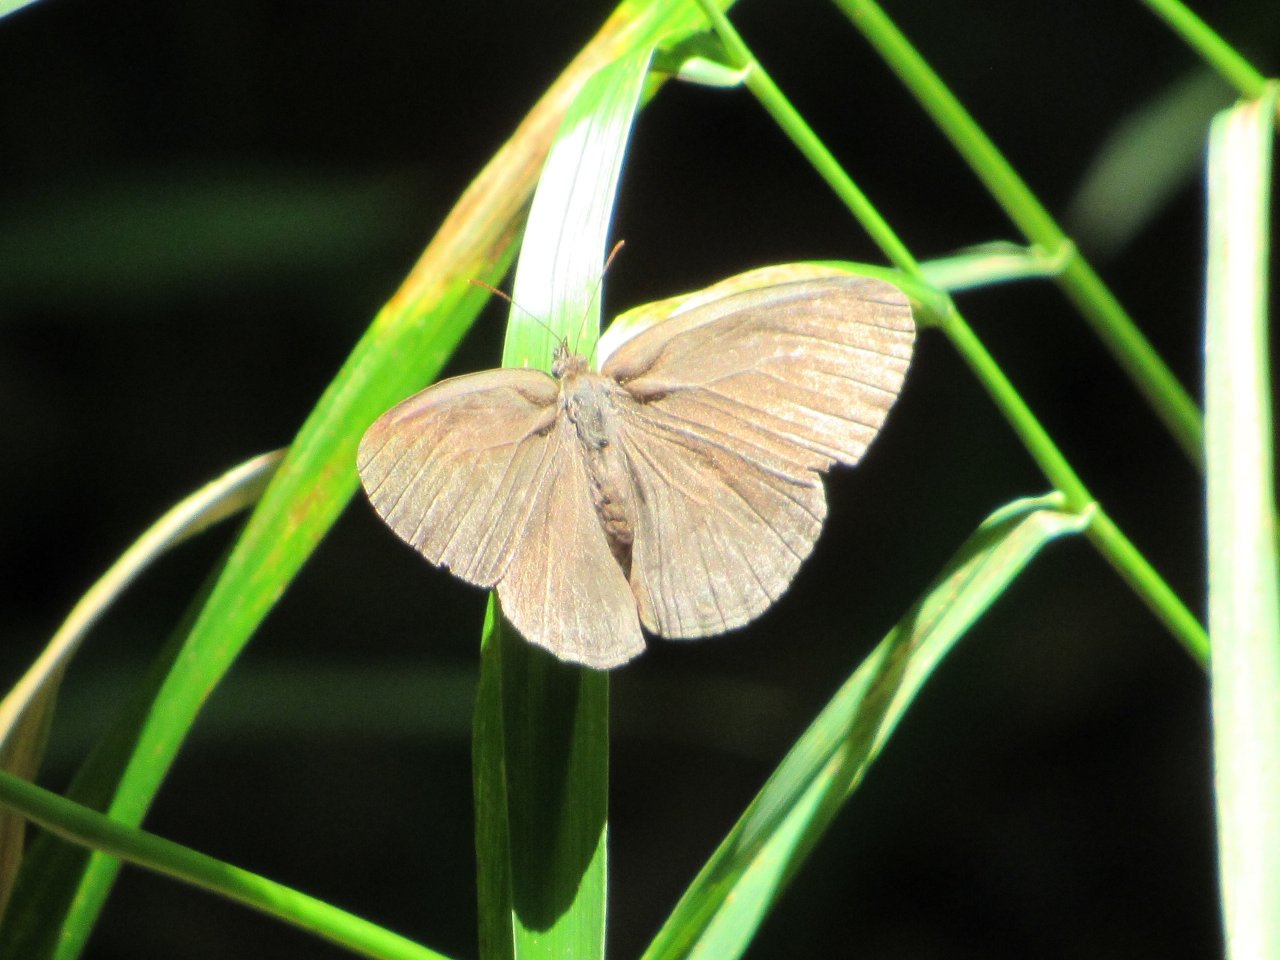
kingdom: Animalia
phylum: Arthropoda
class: Insecta
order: Lepidoptera
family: Nymphalidae
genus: Hermeuptychia
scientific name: Hermeuptychia hermes
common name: Carolina Satyr
